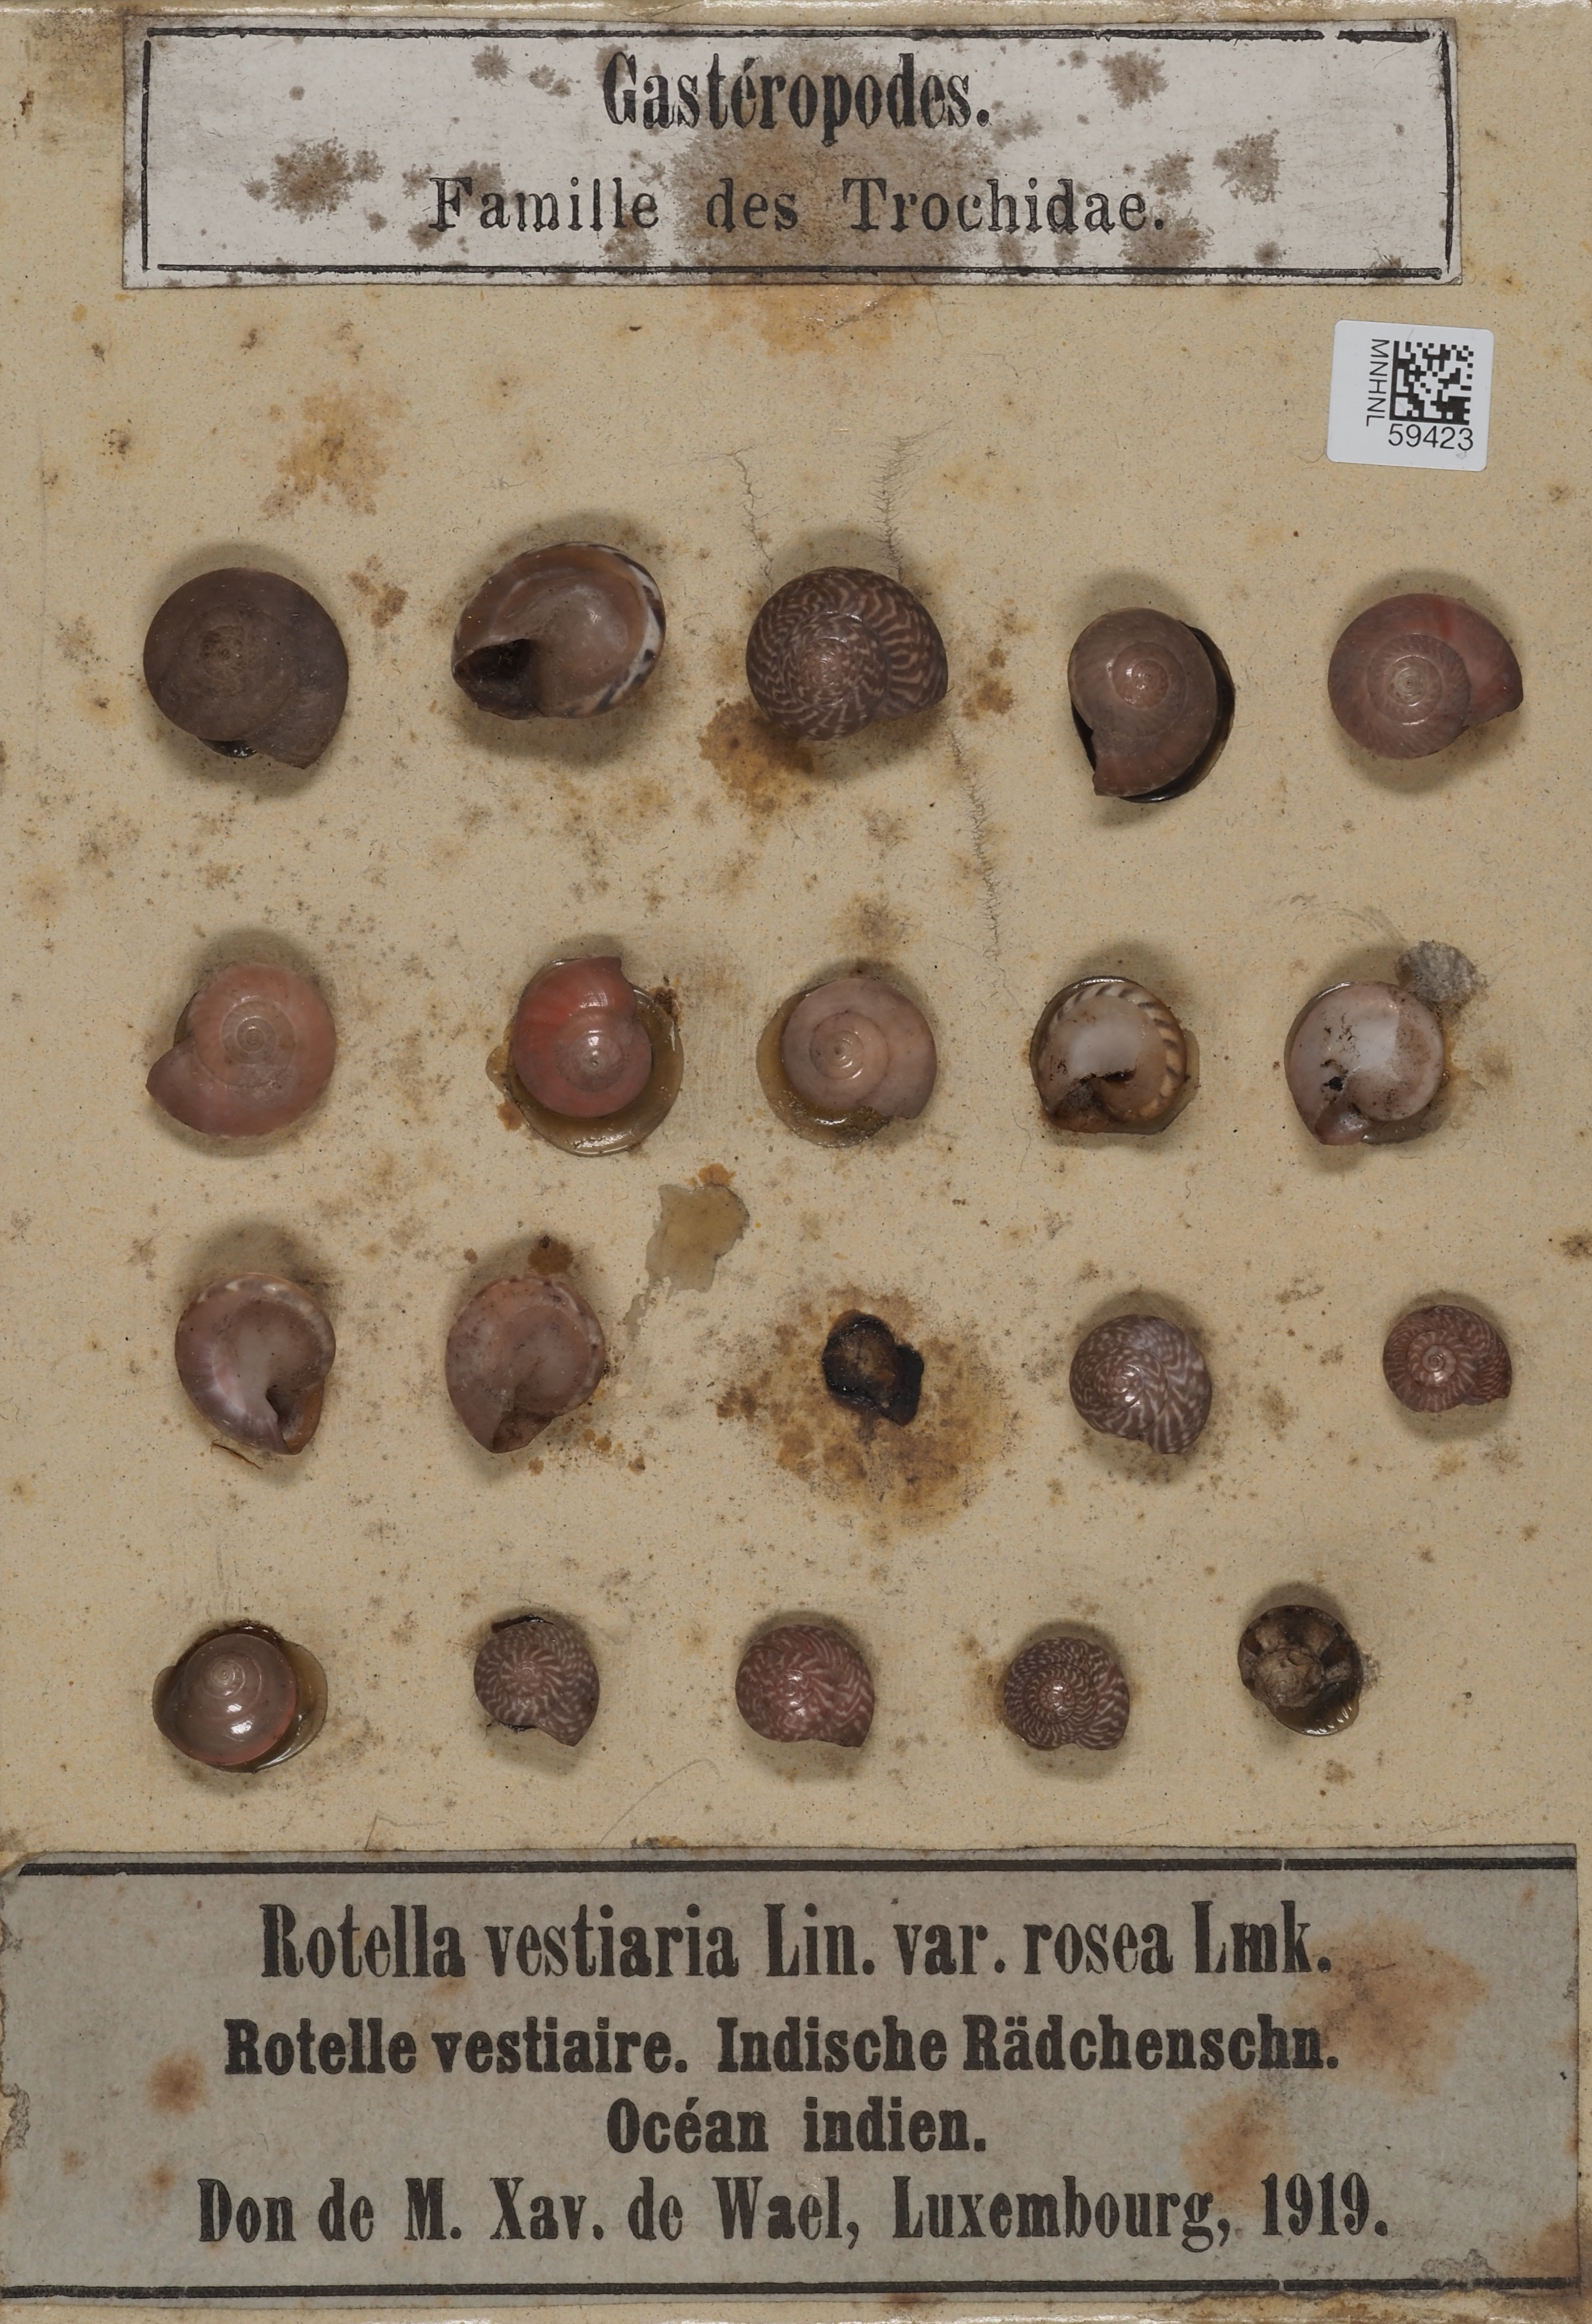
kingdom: Animalia
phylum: Mollusca
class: Gastropoda
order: Trochida
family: Trochidae
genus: Umbonium
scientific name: Umbonium vestiarium
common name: Button tops
